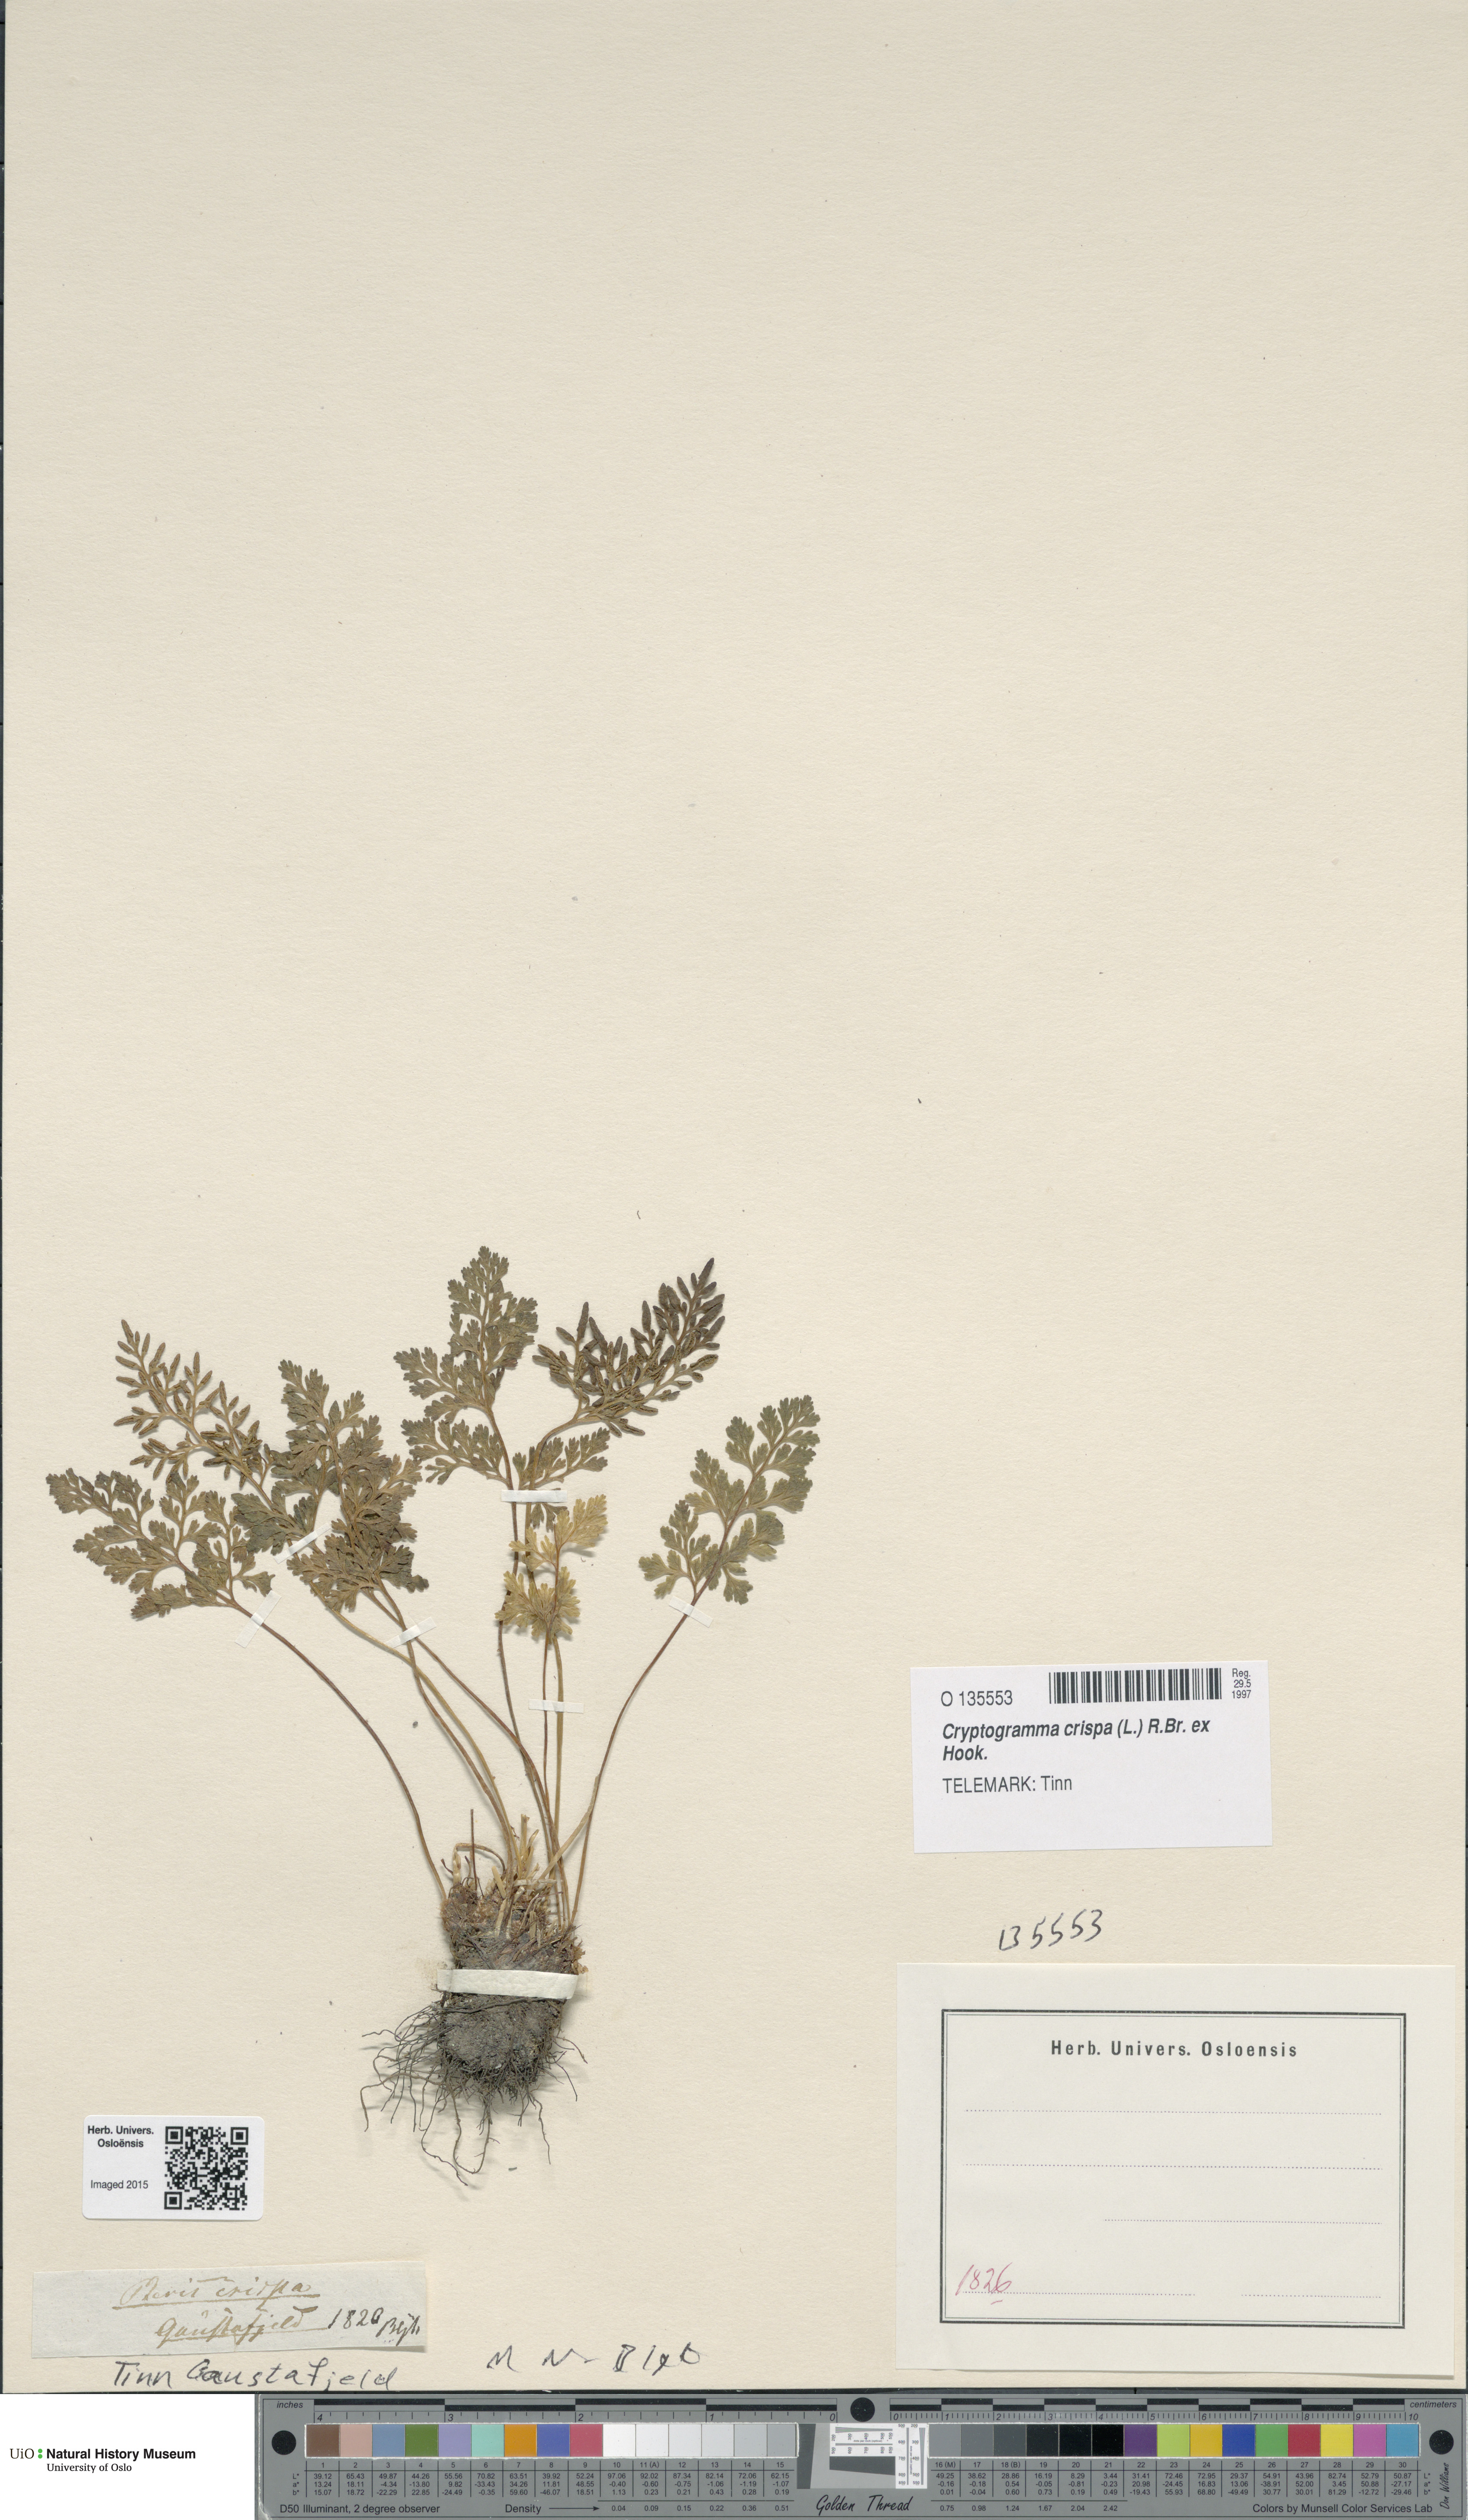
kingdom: Plantae
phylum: Tracheophyta
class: Polypodiopsida
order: Polypodiales
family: Pteridaceae
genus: Cryptogramma
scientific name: Cryptogramma crispa
